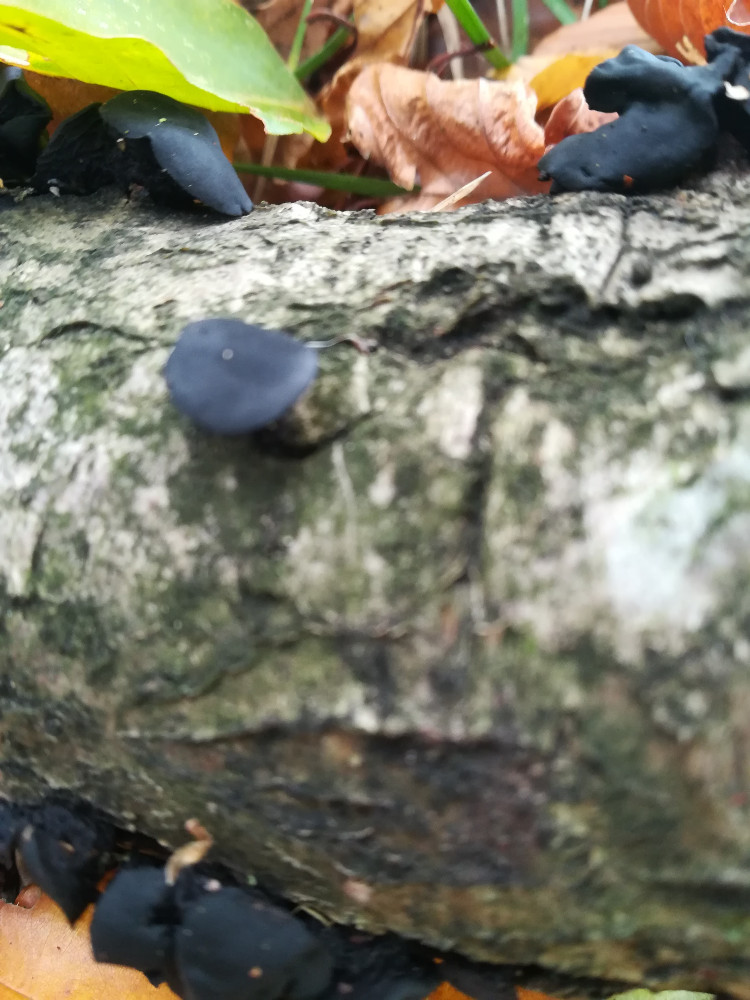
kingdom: Fungi
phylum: Ascomycota
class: Leotiomycetes
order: Phacidiales
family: Phacidiaceae
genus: Bulgaria
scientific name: Bulgaria inquinans
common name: afsmittende topsvamp
